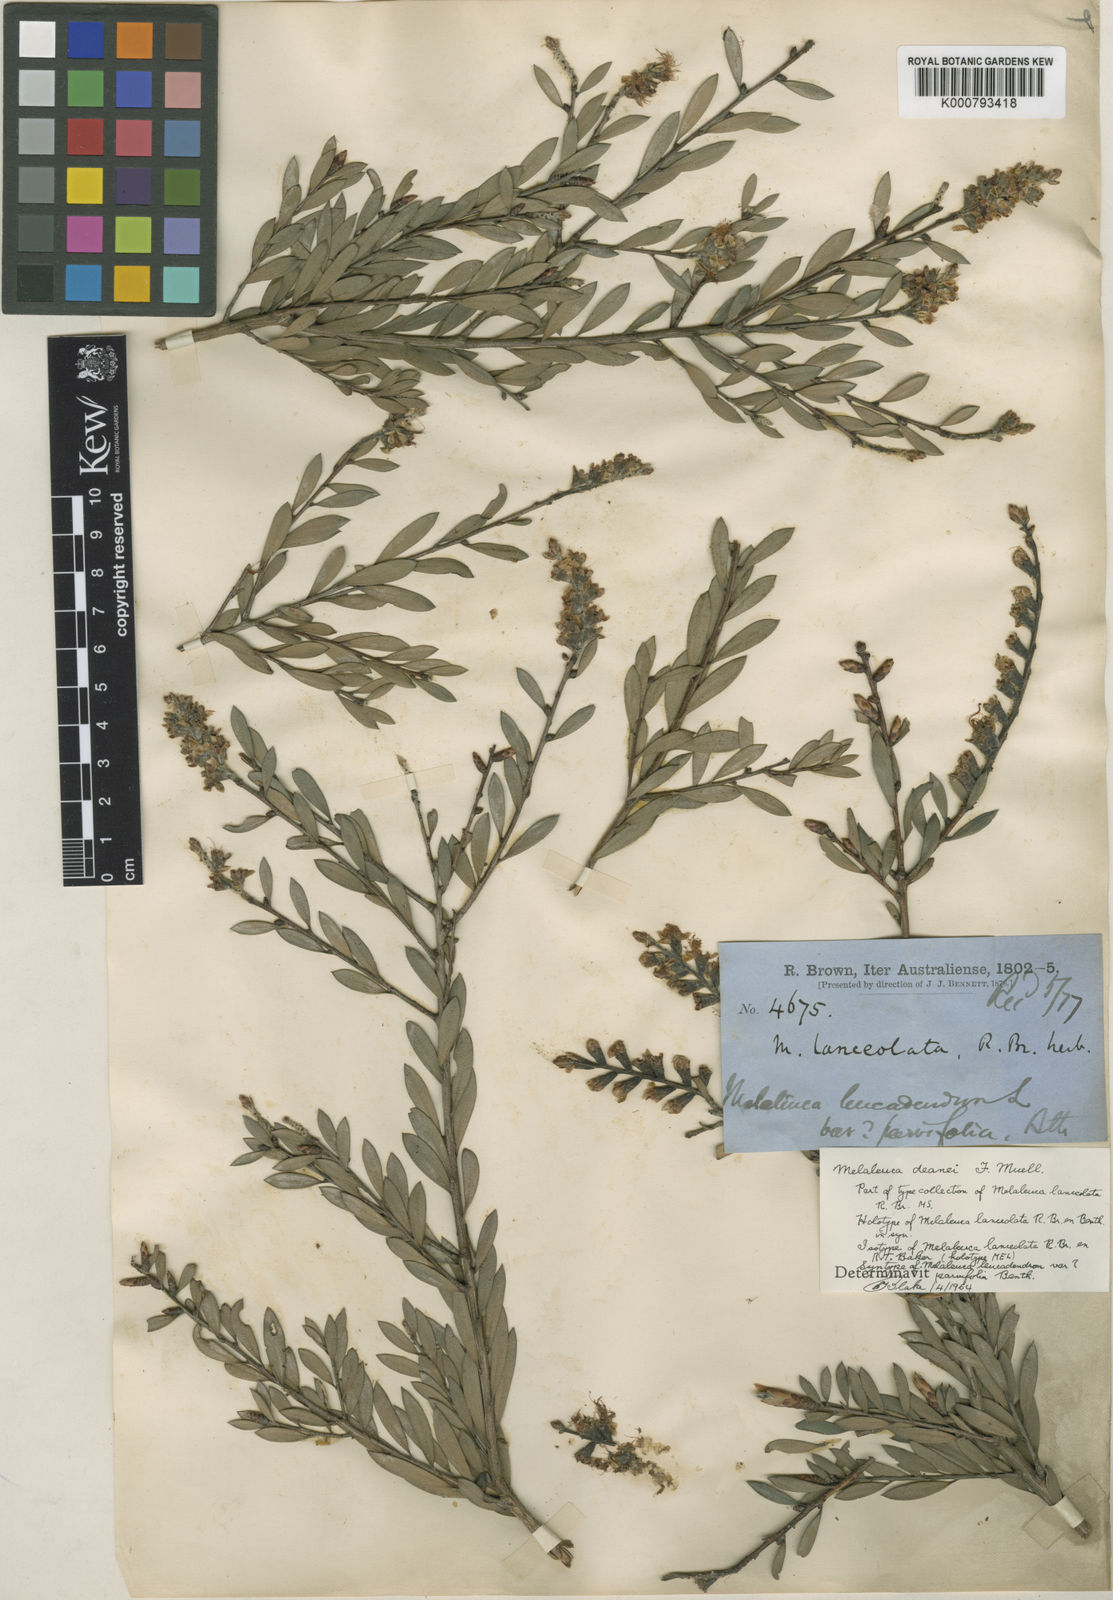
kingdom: Plantae
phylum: Tracheophyta
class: Magnoliopsida
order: Myrtales
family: Myrtaceae
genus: Melaleuca
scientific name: Melaleuca deanei
